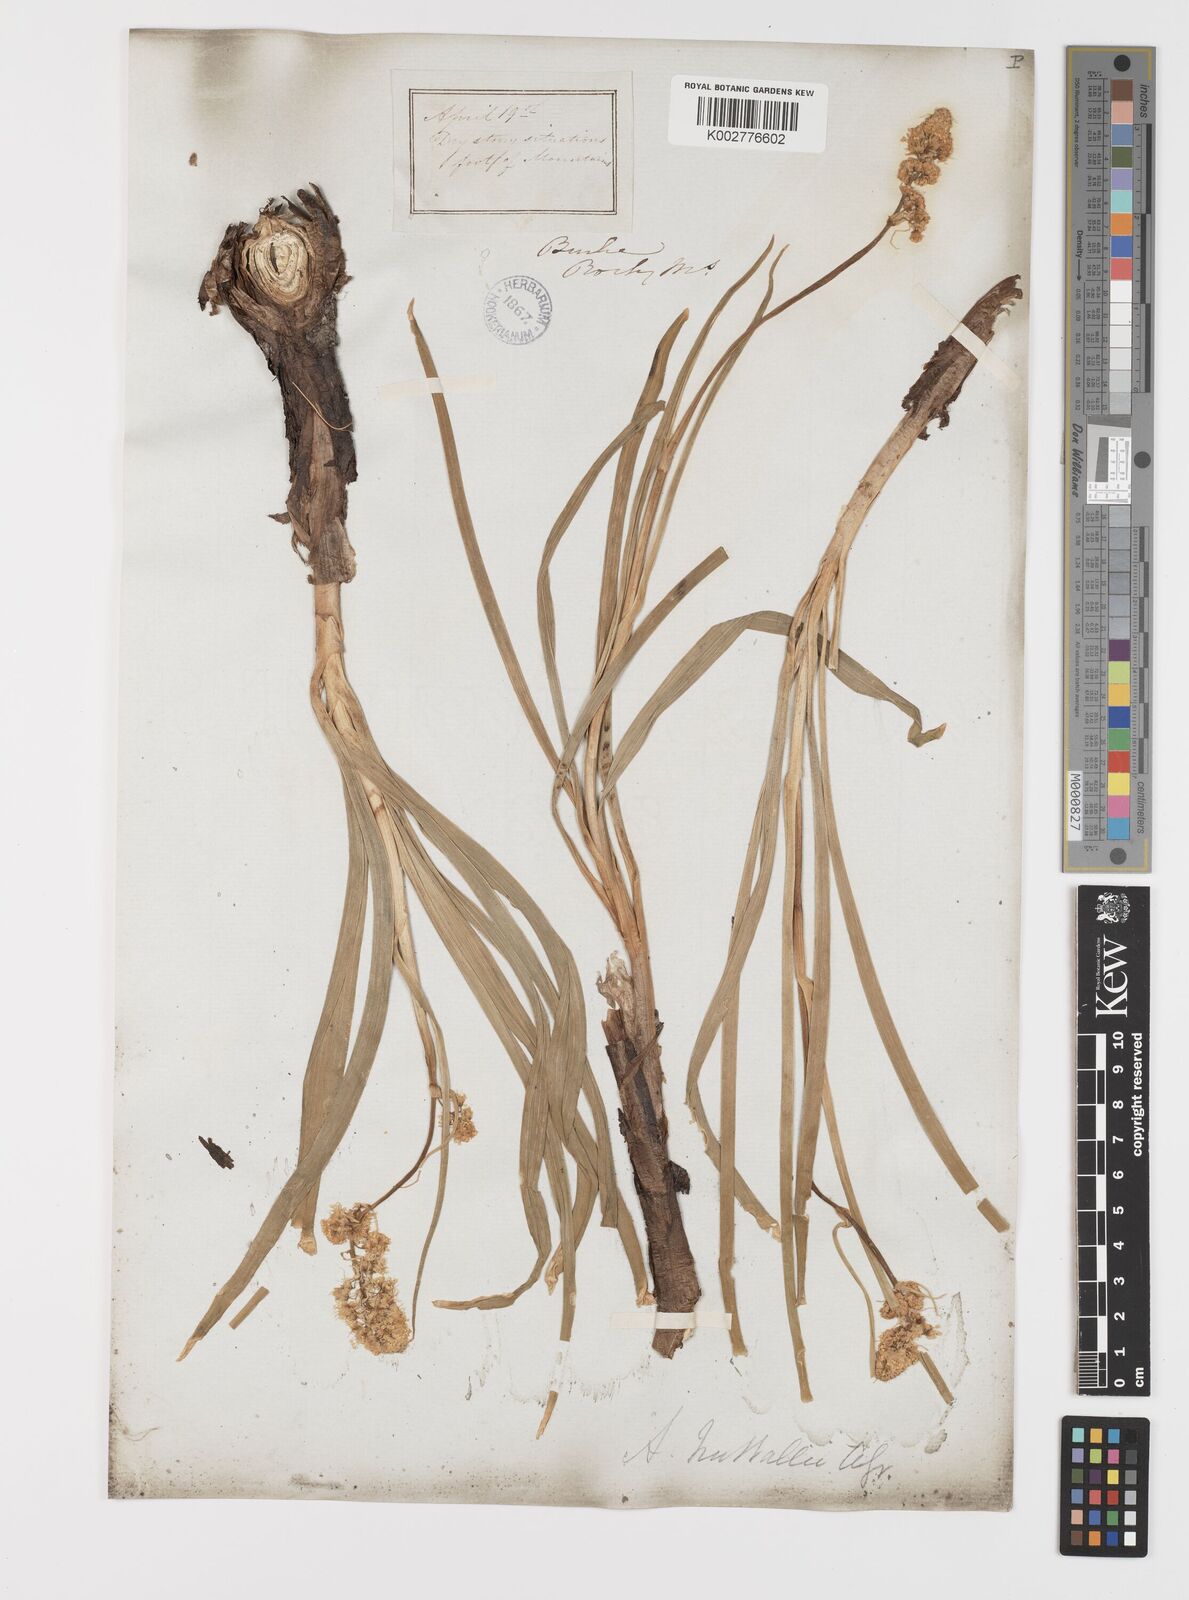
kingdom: Plantae
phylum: Tracheophyta
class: Liliopsida
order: Liliales
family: Melanthiaceae
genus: Toxicoscordion
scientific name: Toxicoscordion nuttallii
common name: Poison sego
